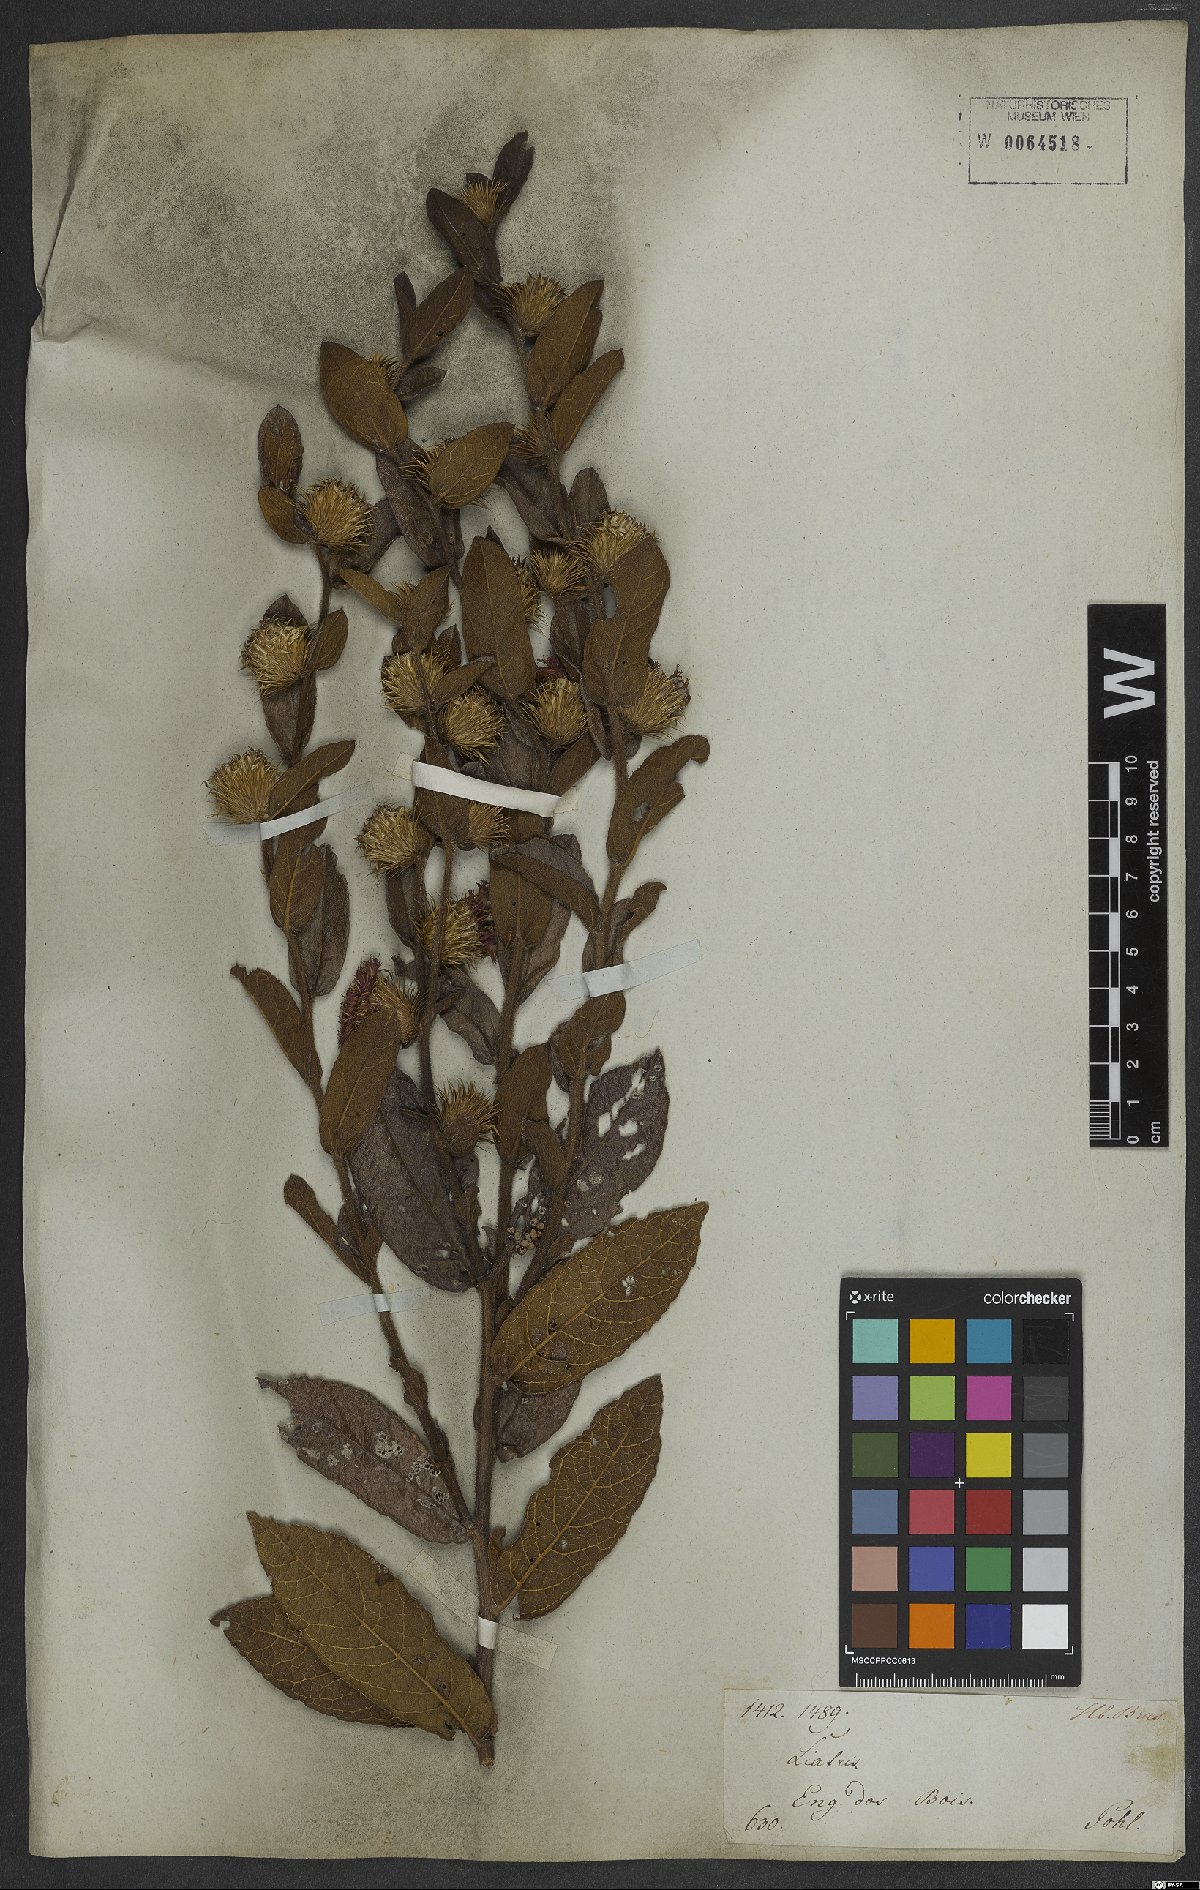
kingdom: Plantae
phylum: Tracheophyta
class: Magnoliopsida
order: Asterales
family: Asteraceae
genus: Lessingianthus
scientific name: Lessingianthus bardanioides
